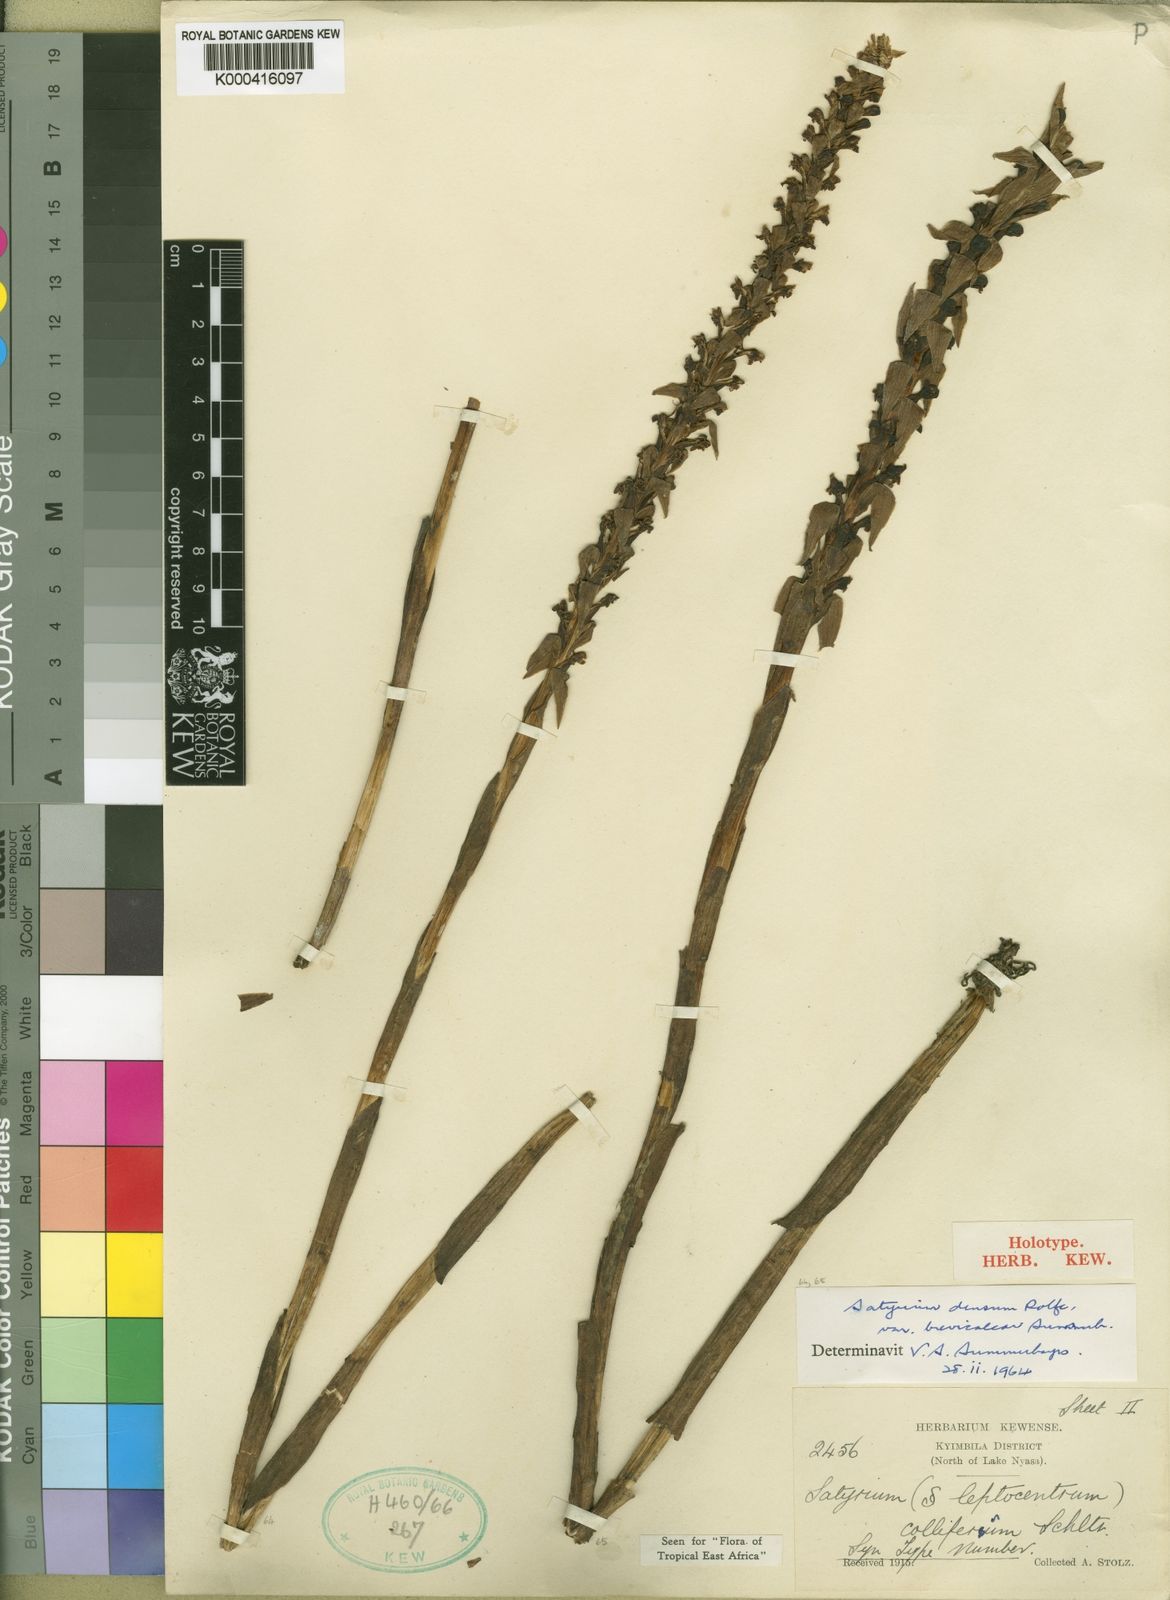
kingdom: Plantae
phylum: Tracheophyta
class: Liliopsida
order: Asparagales
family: Orchidaceae
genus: Satyrium
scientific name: Satyrium neglectum
